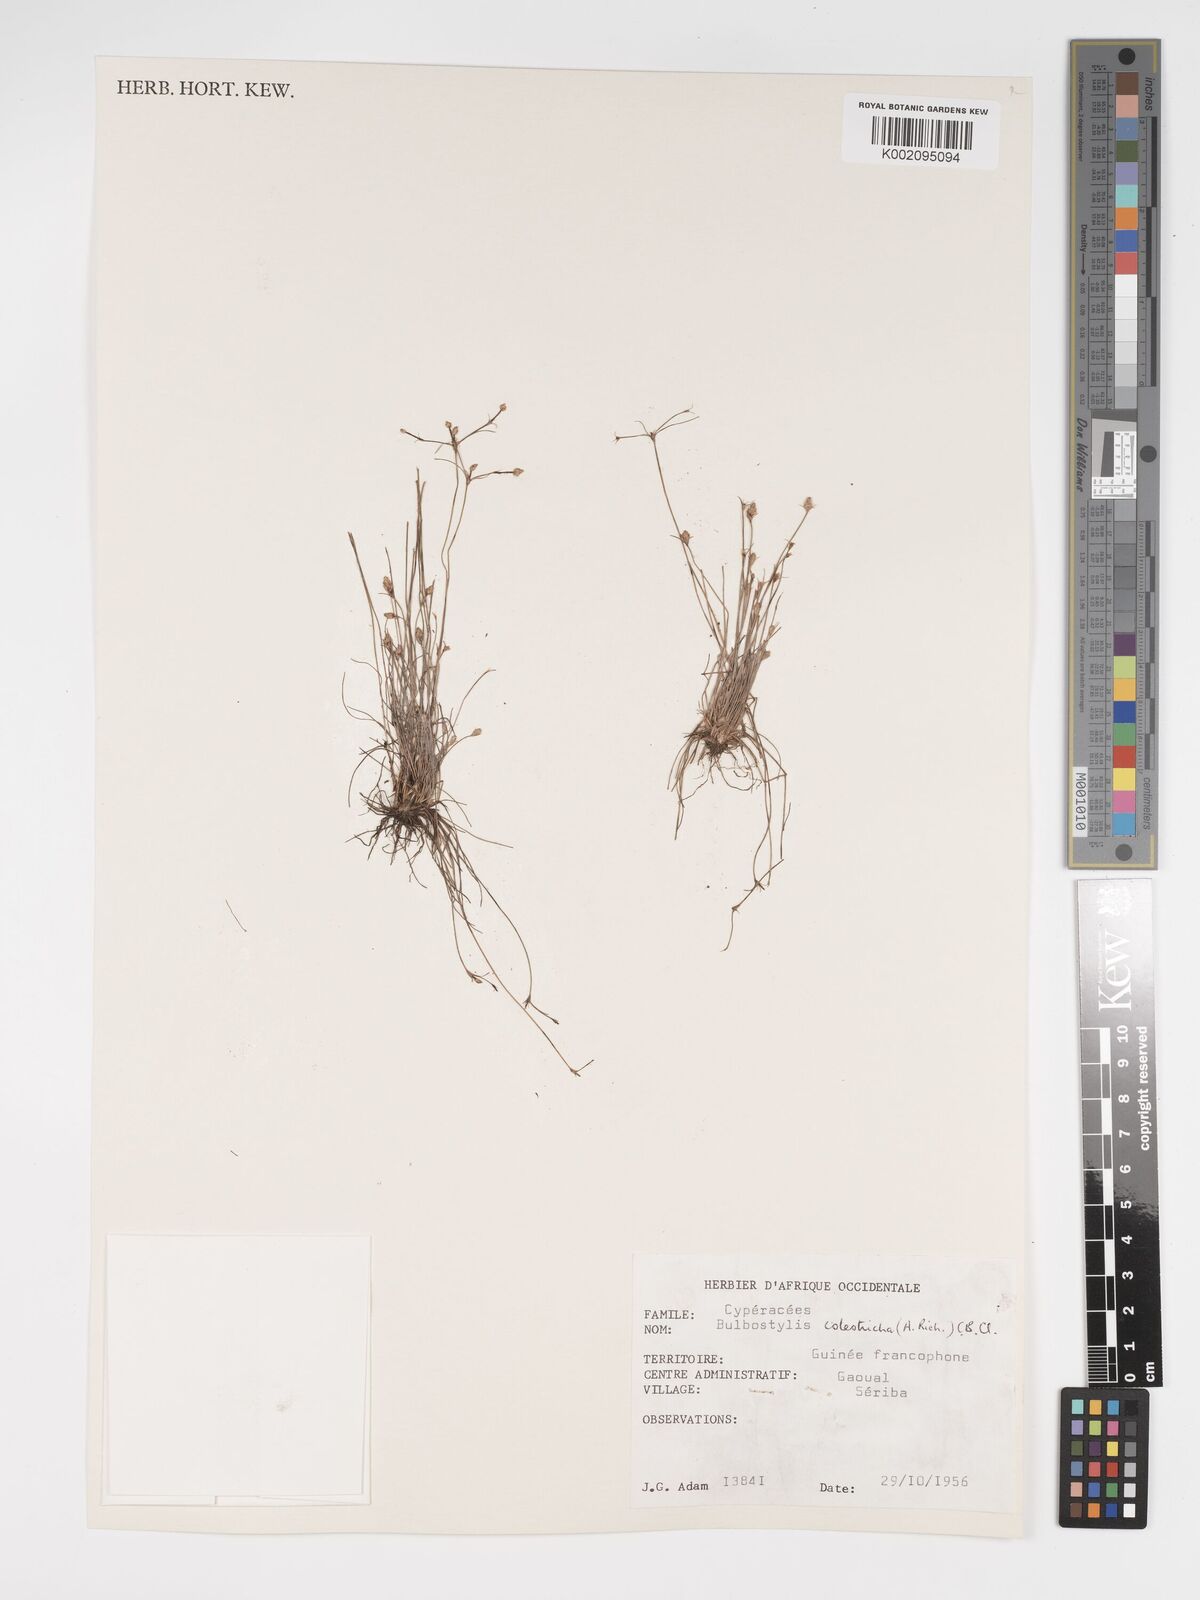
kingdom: Plantae
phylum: Tracheophyta
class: Liliopsida
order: Poales
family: Cyperaceae
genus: Bulbostylis
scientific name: Bulbostylis coleotricha
